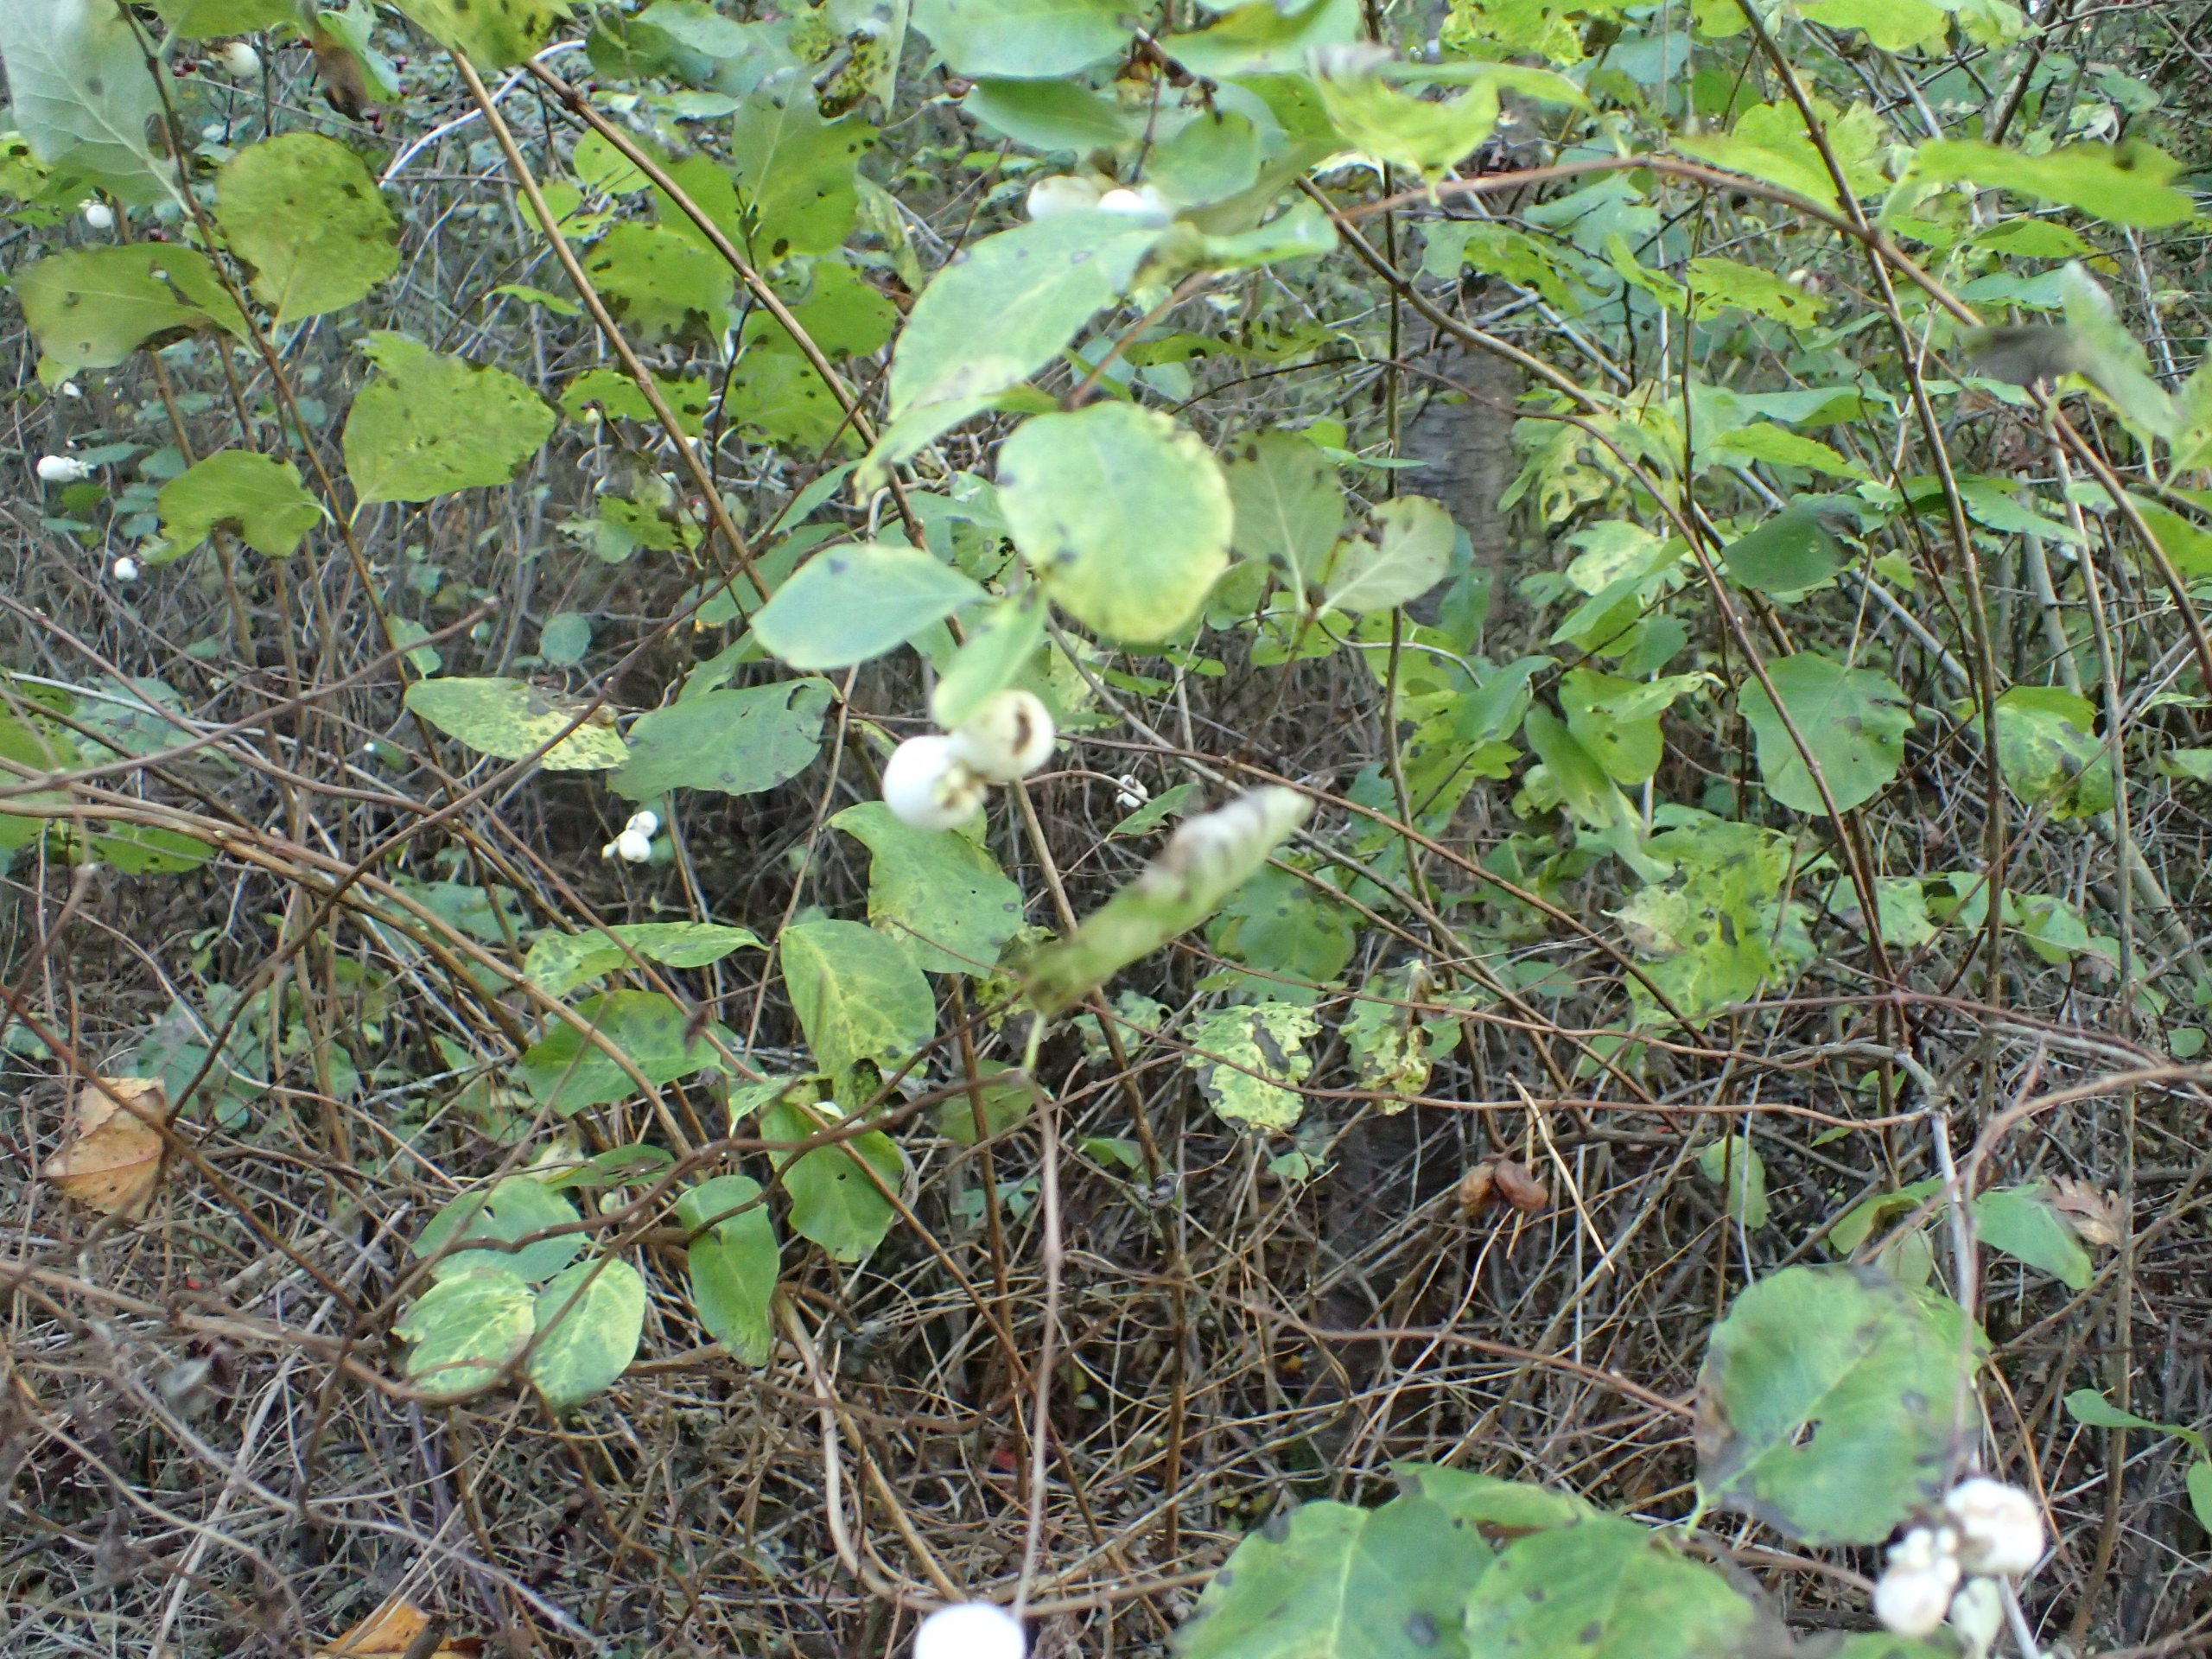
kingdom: Plantae
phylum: Tracheophyta
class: Magnoliopsida
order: Dipsacales
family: Caprifoliaceae
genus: Symphoricarpos
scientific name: Symphoricarpos albus
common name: Almindelig snebær
